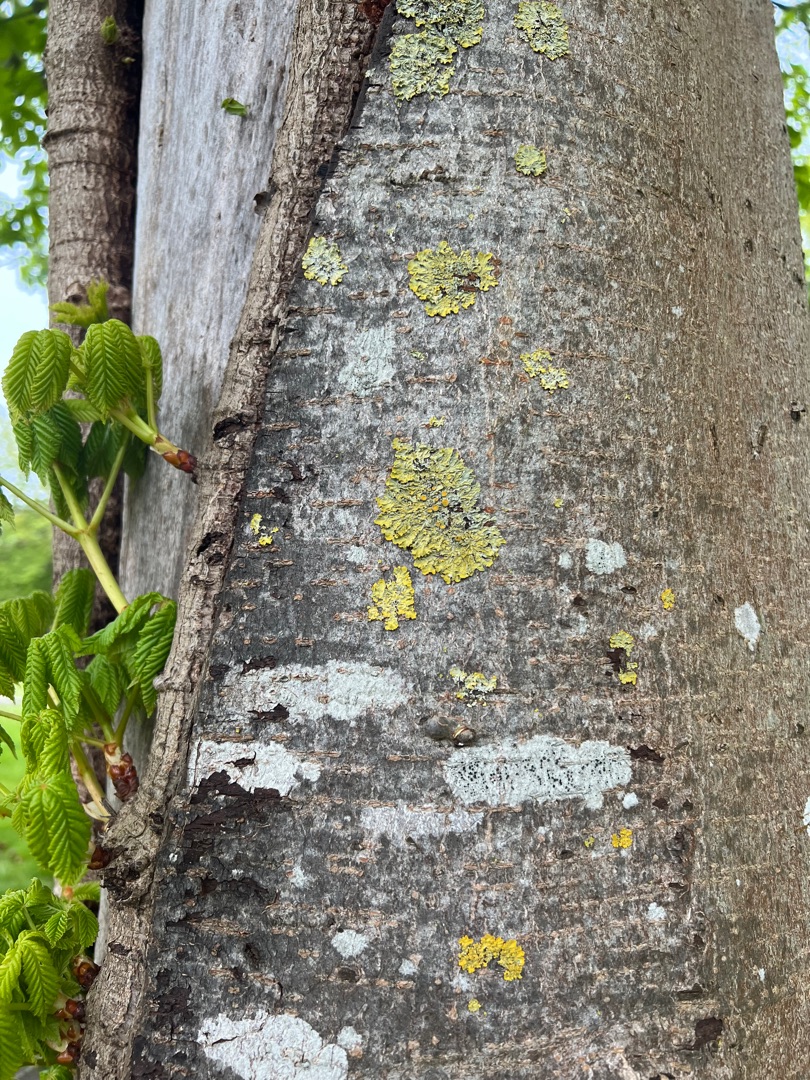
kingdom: Fungi
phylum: Ascomycota
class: Lecanoromycetes
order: Teloschistales
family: Teloschistaceae
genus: Xanthoria
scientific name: Xanthoria parietina
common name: Almindelig væggelav
